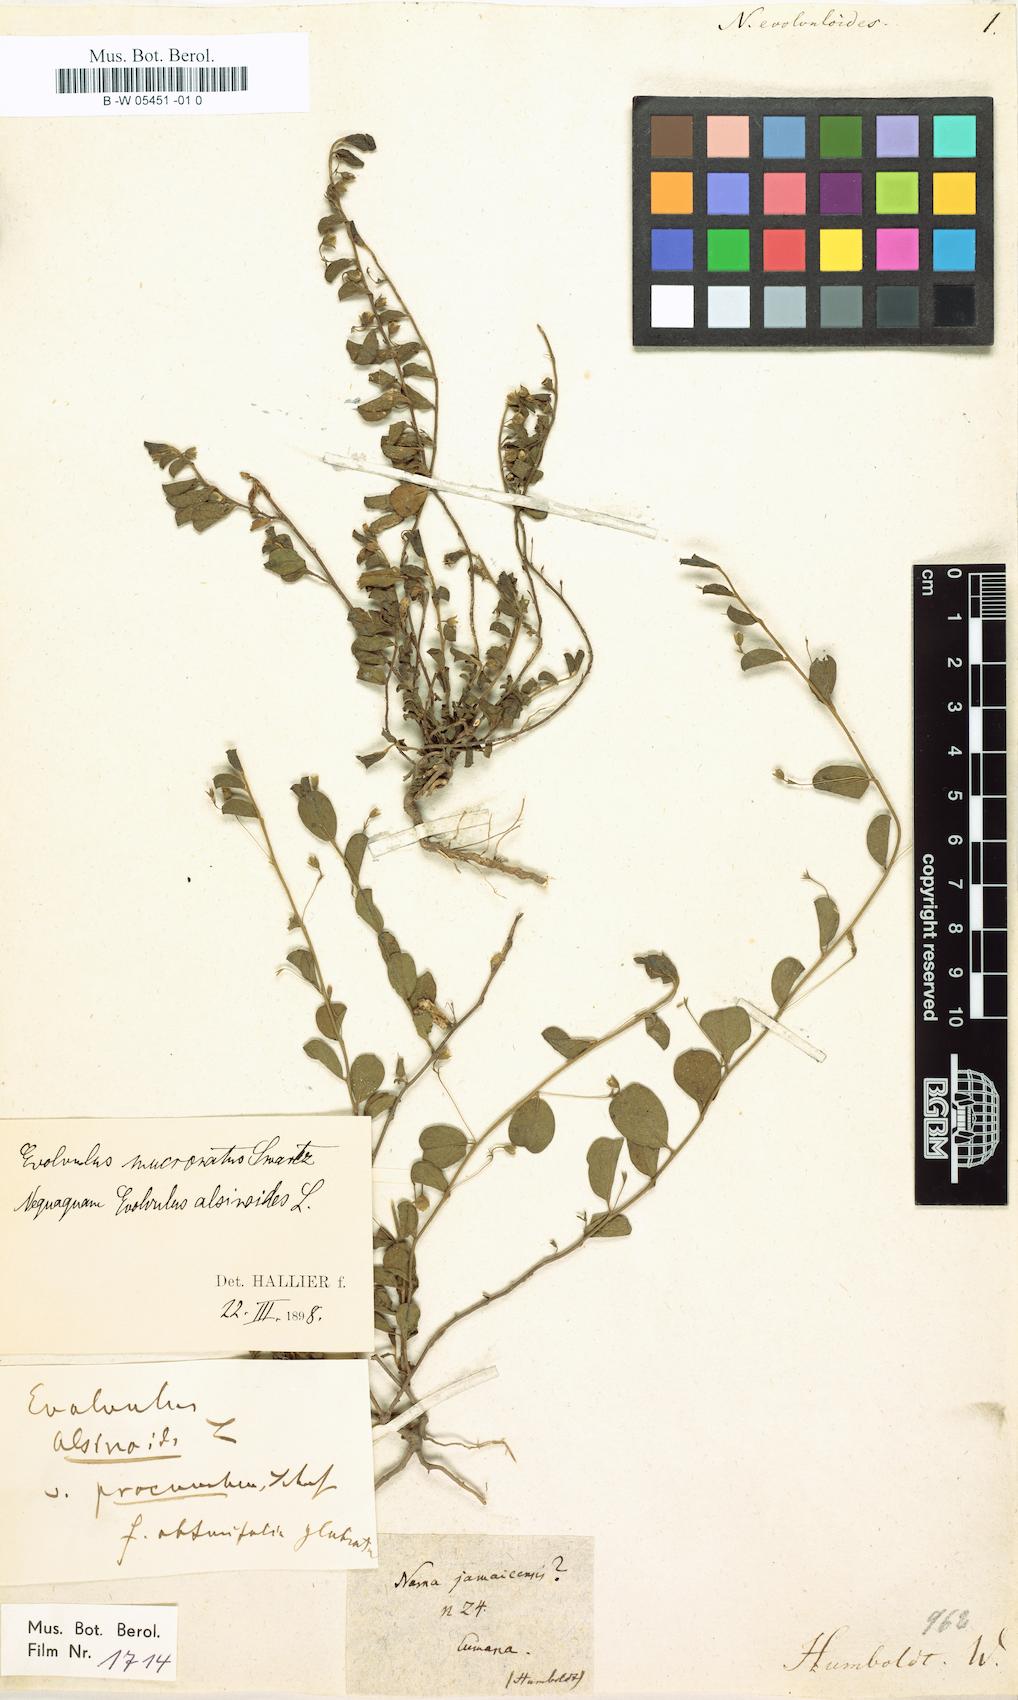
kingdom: Plantae
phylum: Tracheophyta
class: Magnoliopsida
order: Solanales
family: Convolvulaceae
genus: Evolvulus
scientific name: Evolvulus convolvuloides
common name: Bindweed dwarf morning-glory
